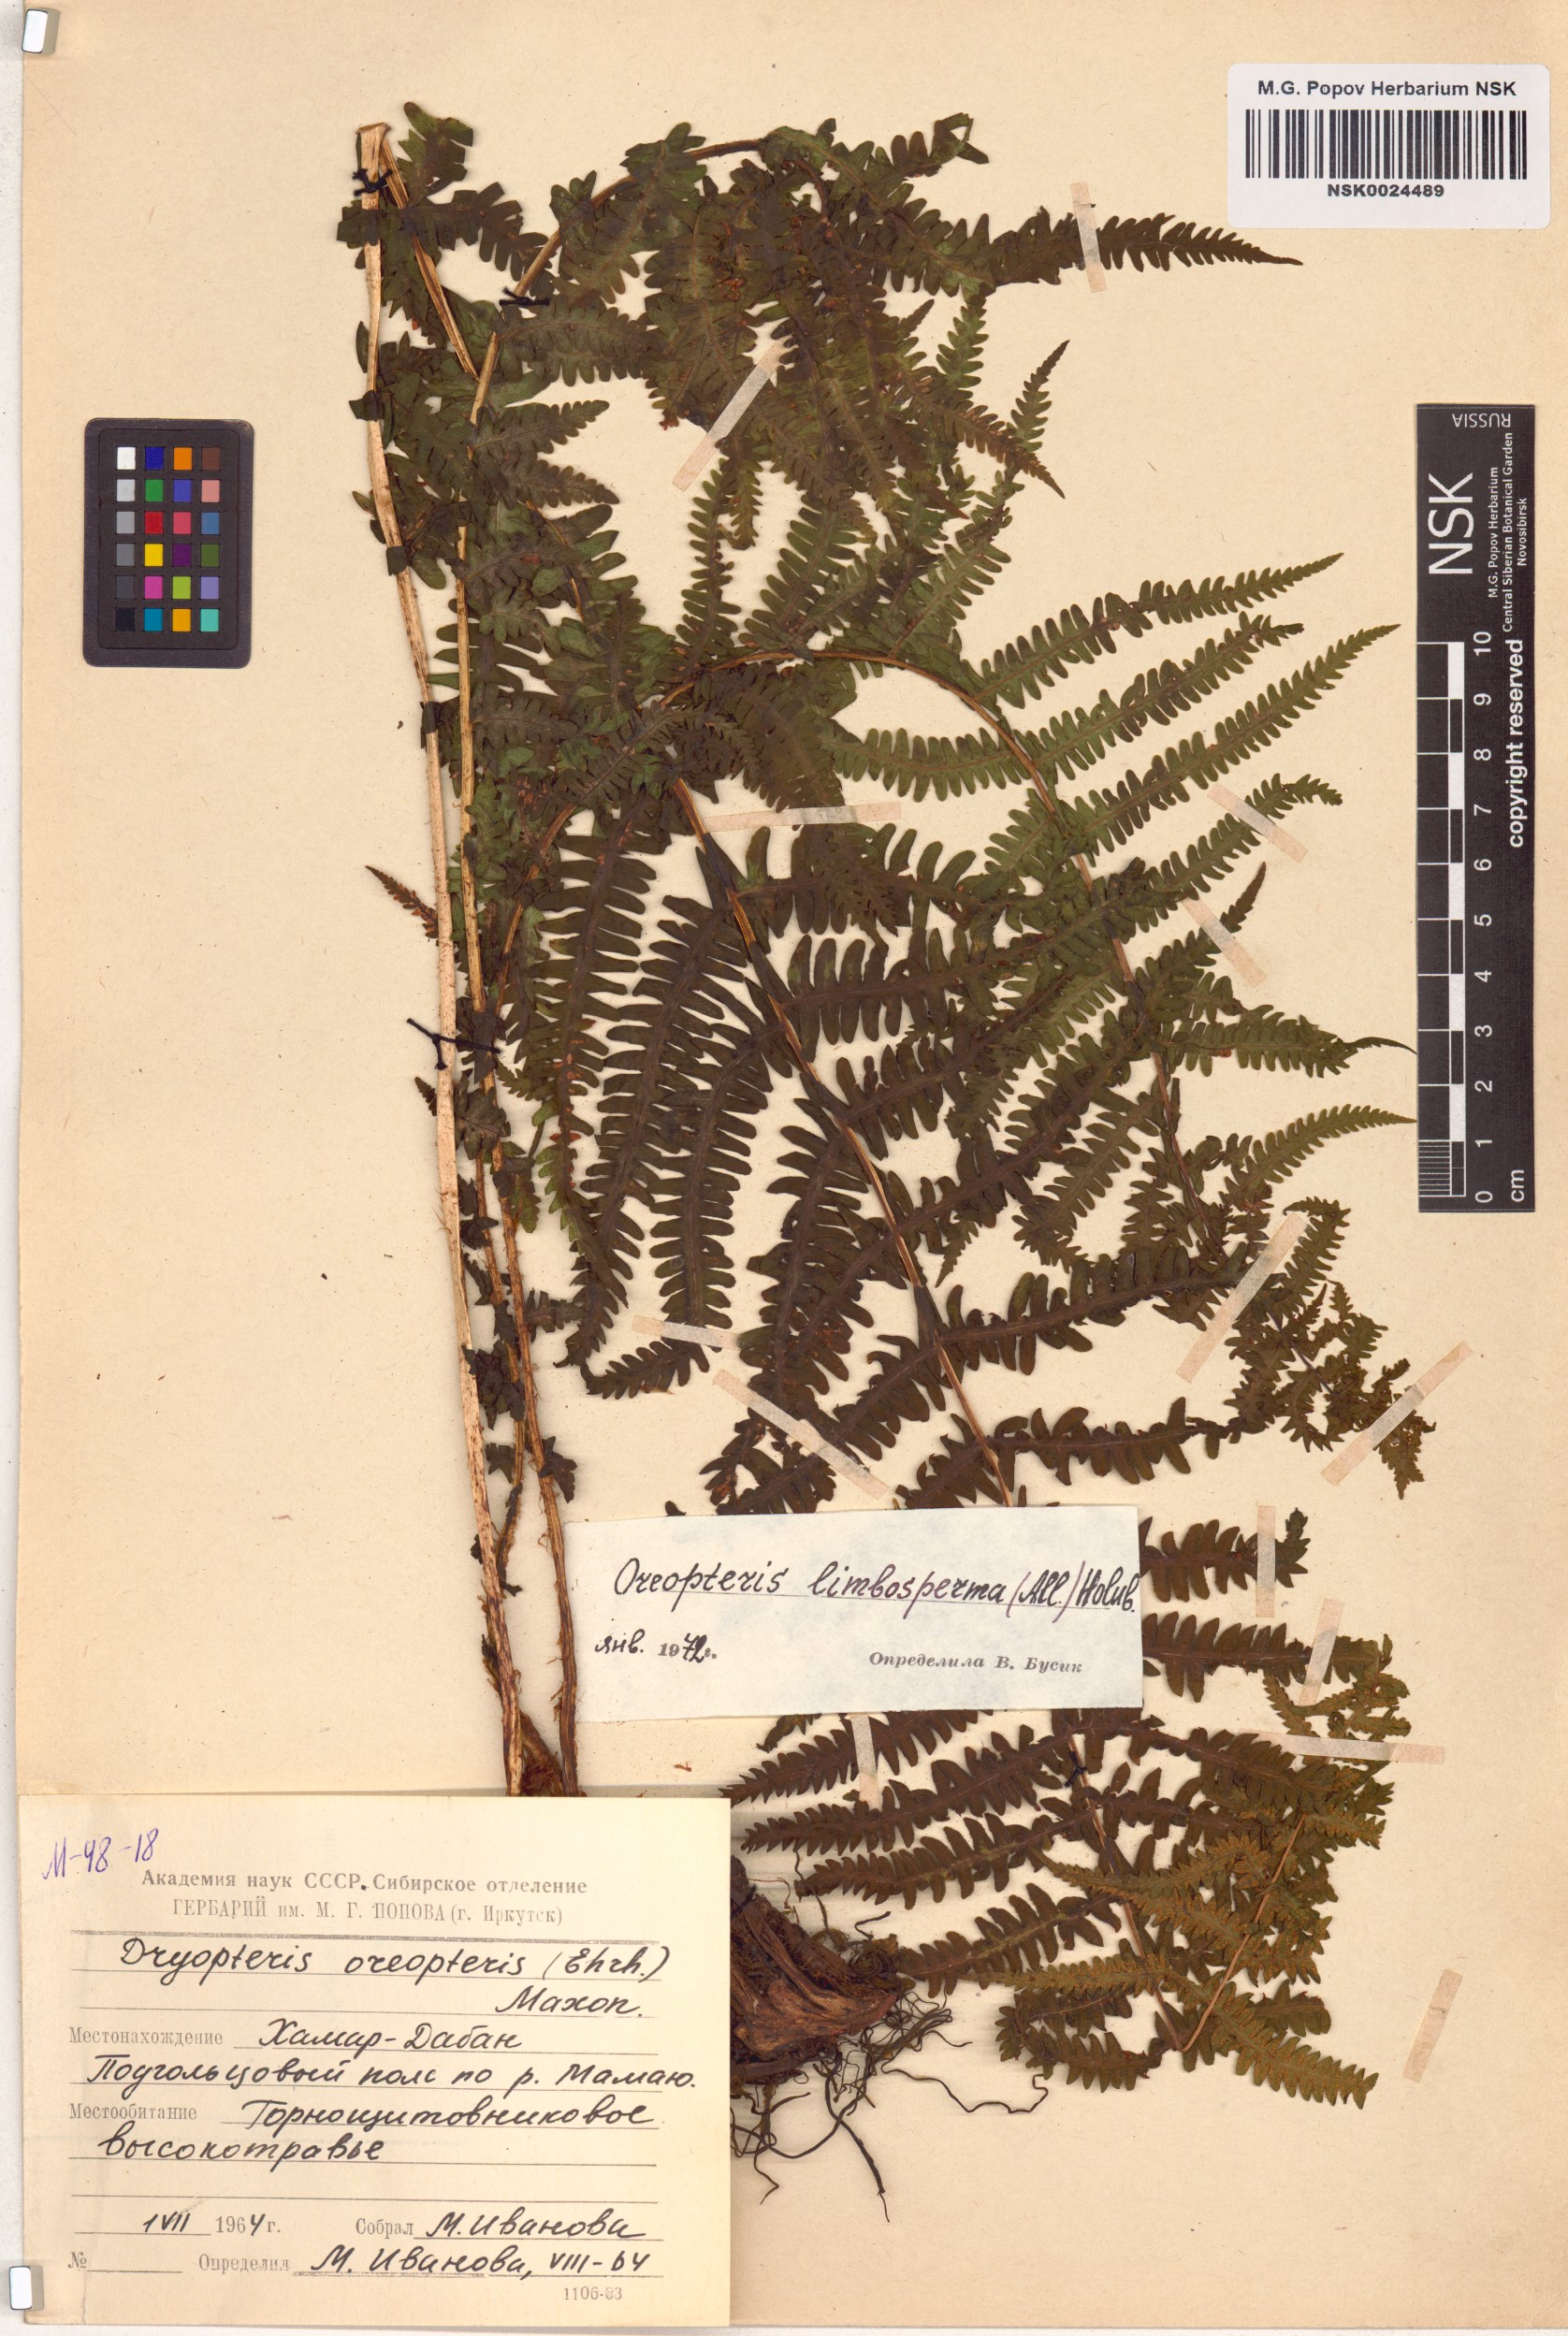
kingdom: Plantae
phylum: Tracheophyta
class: Polypodiopsida
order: Polypodiales
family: Thelypteridaceae
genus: Oreopteris
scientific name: Oreopteris limbosperma
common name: Lemon-scented fern
